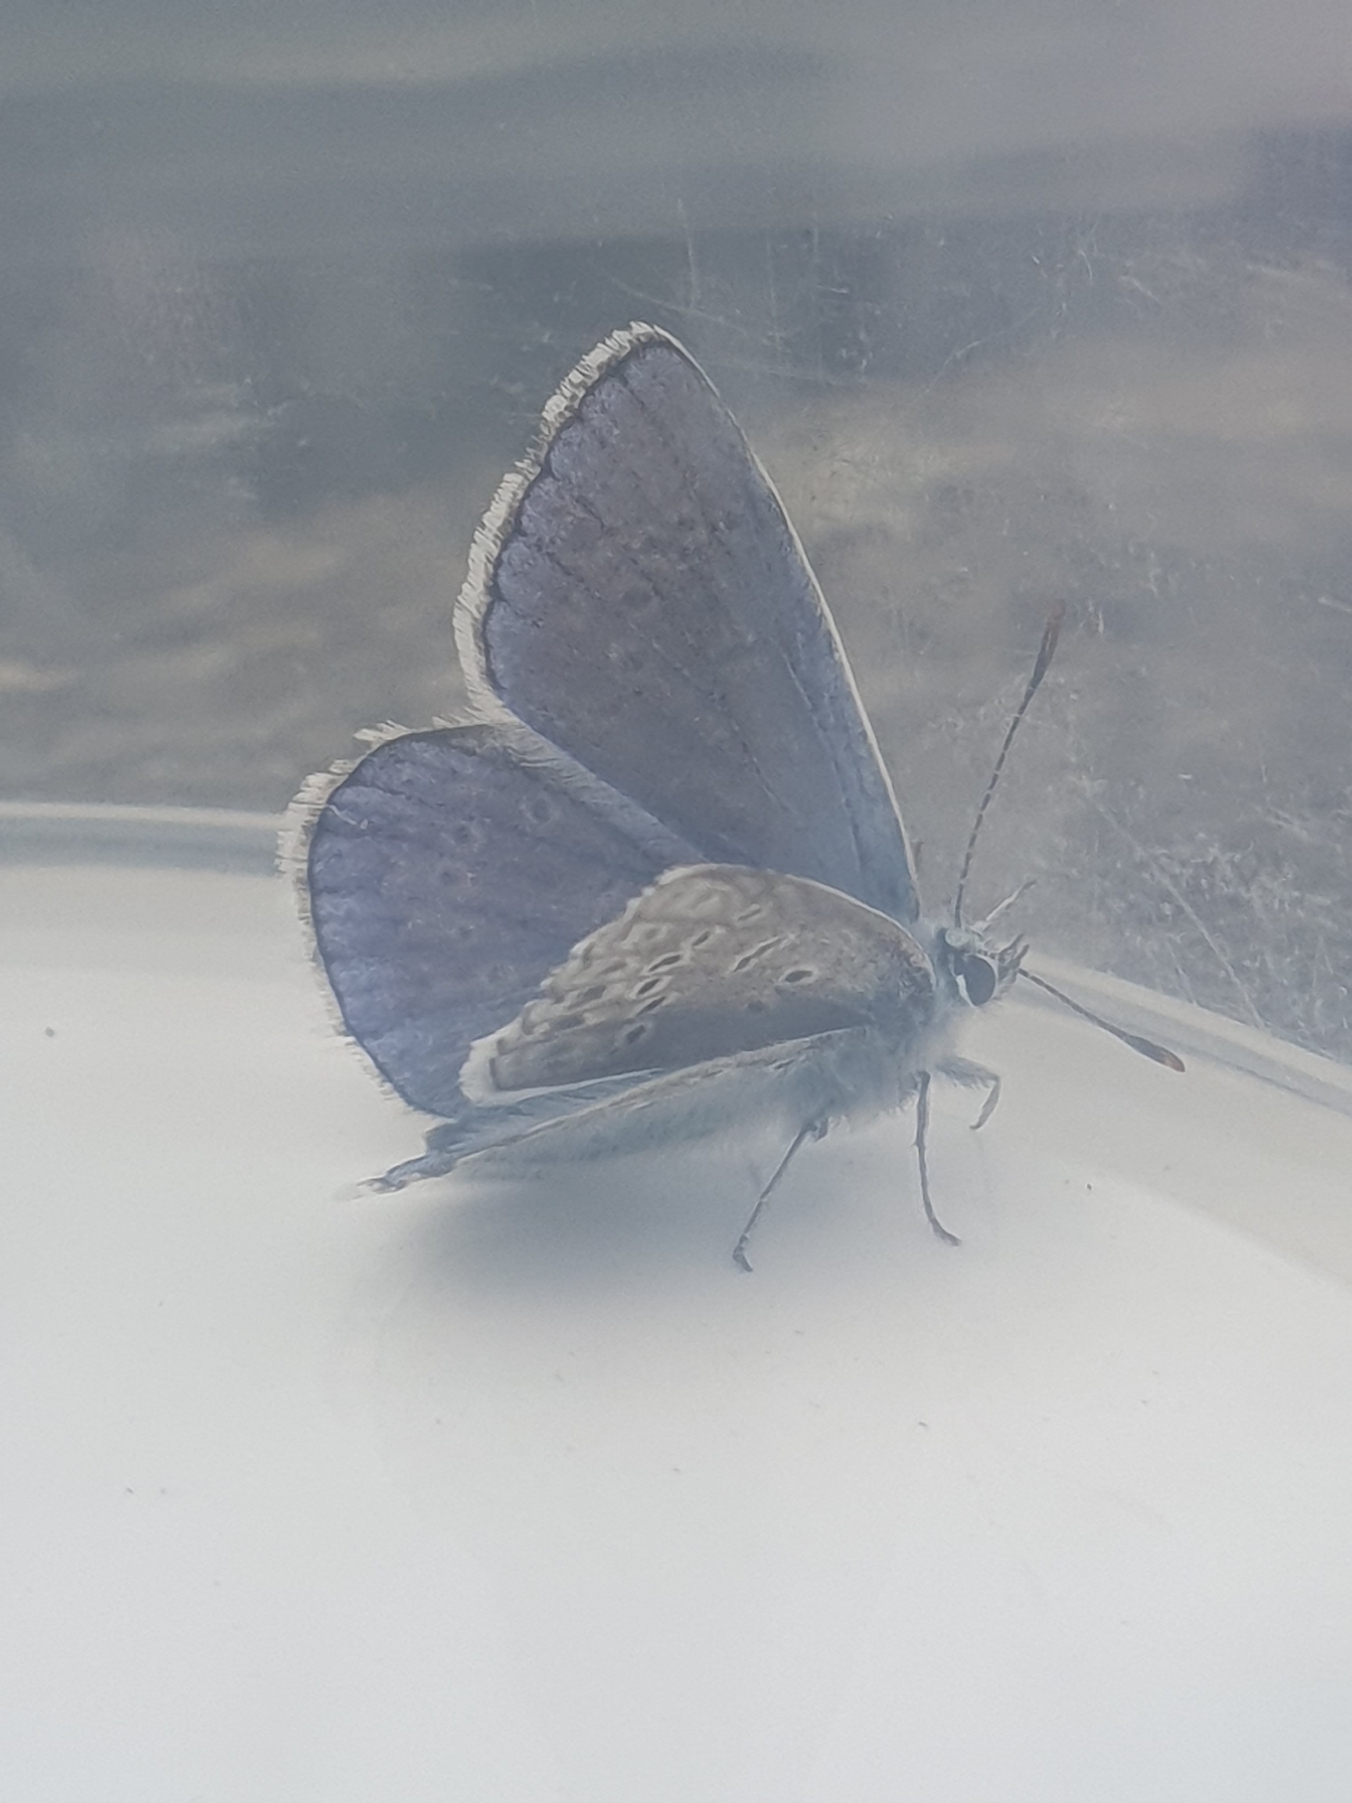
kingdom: Animalia
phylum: Arthropoda
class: Insecta
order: Lepidoptera
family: Lycaenidae
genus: Polyommatus
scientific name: Polyommatus icarus
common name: Almindelig blåfugl
